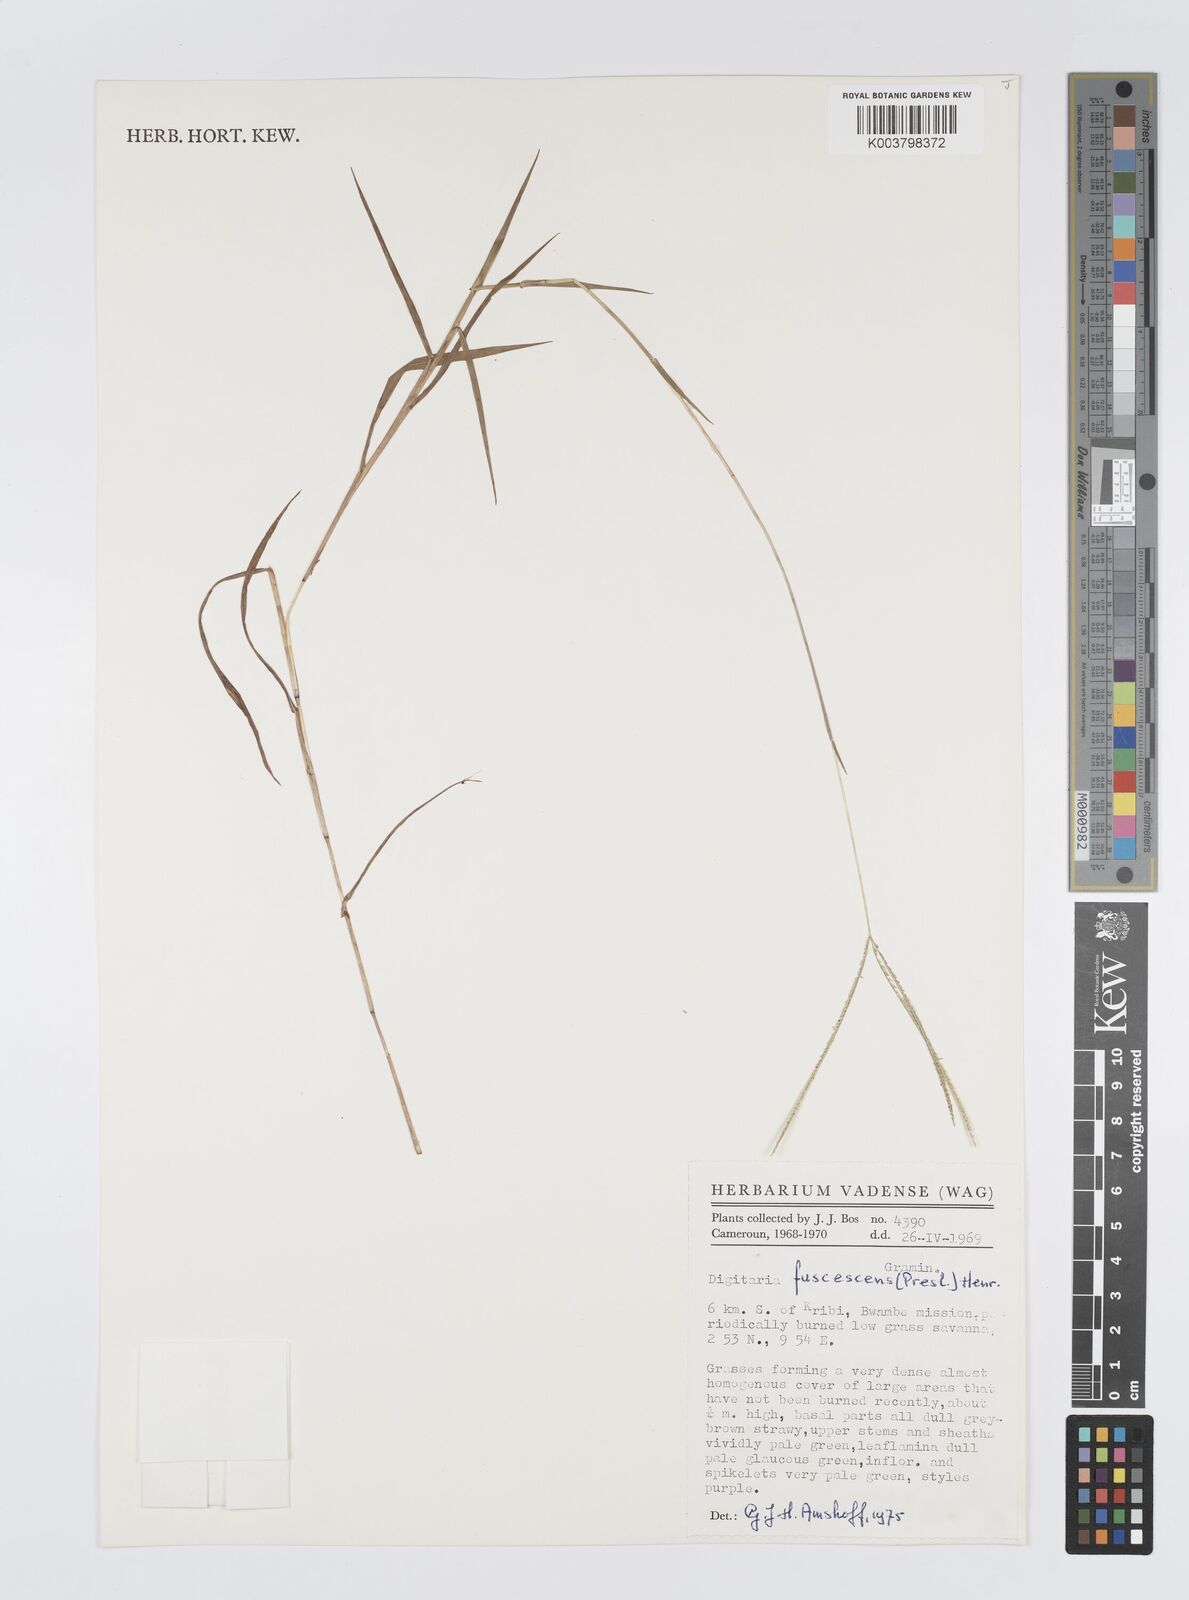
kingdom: Plantae
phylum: Tracheophyta
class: Liliopsida
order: Poales
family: Poaceae
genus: Digitaria
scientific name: Digitaria fuscescens
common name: Yellow crabgrass
